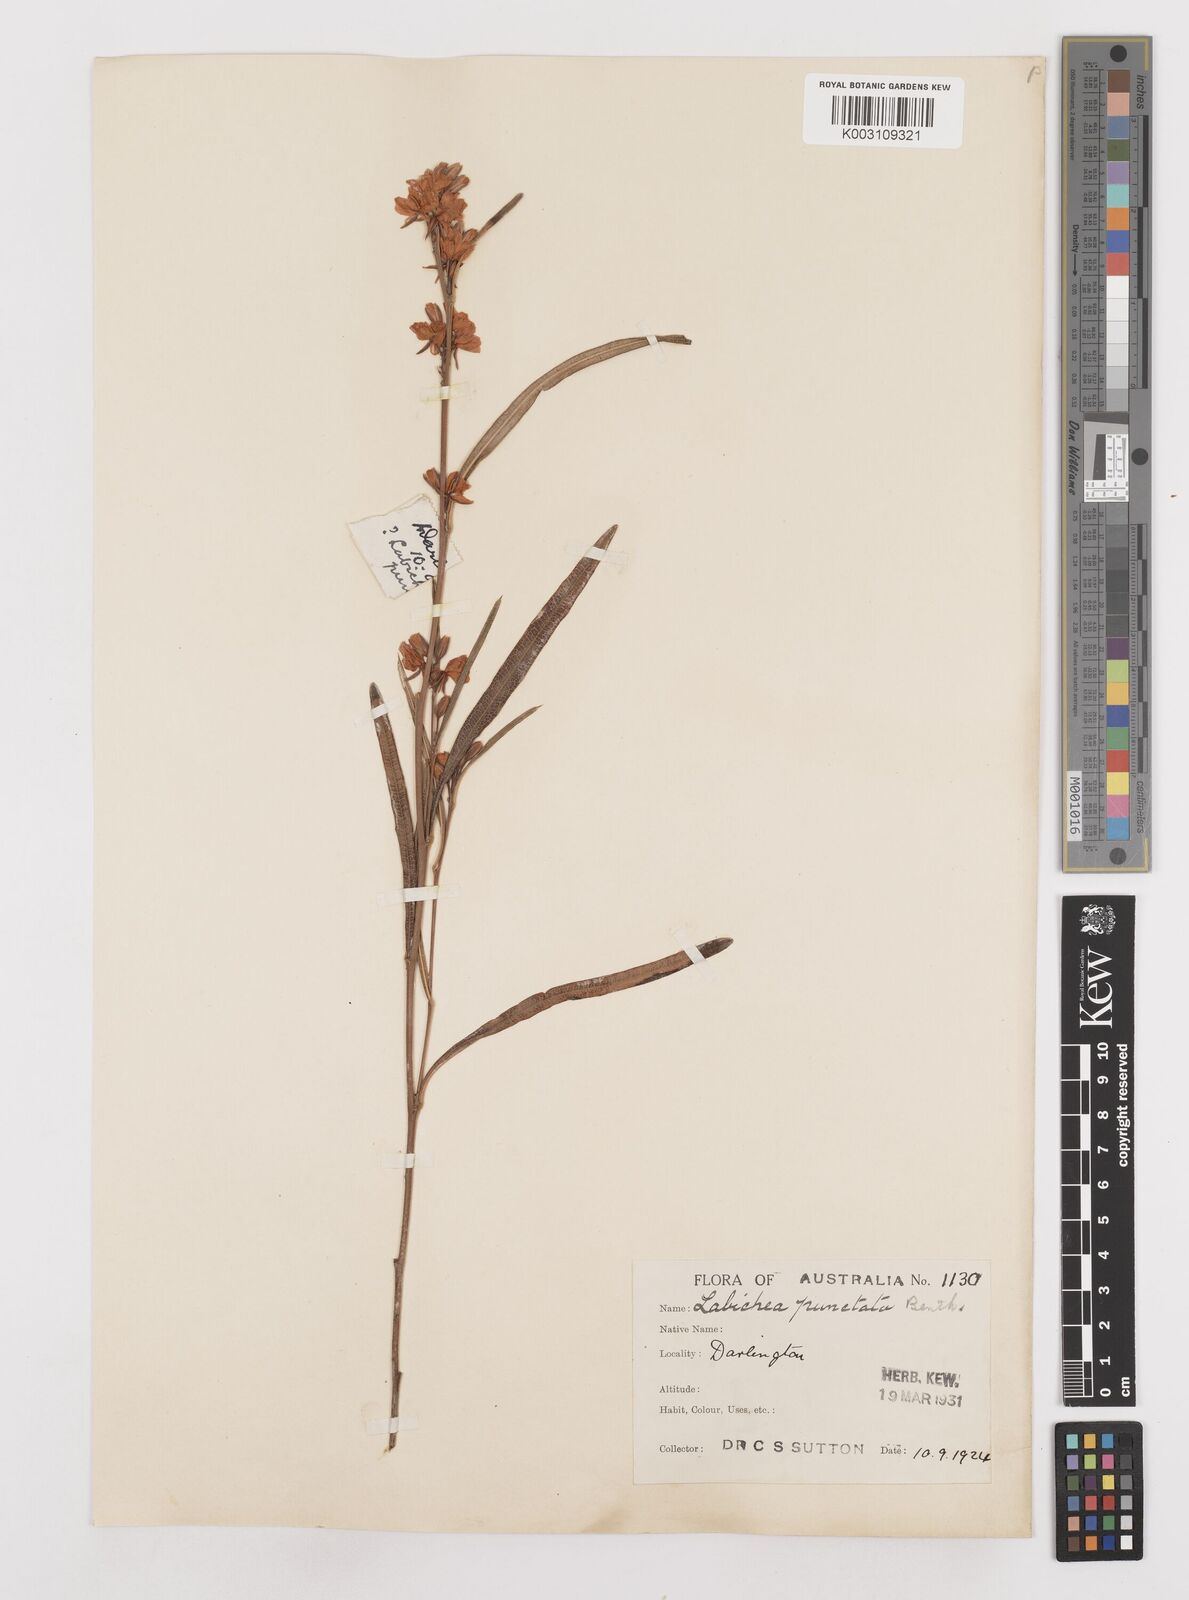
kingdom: Plantae
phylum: Tracheophyta
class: Magnoliopsida
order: Fabales
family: Fabaceae
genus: Labichea
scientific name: Labichea punctata
